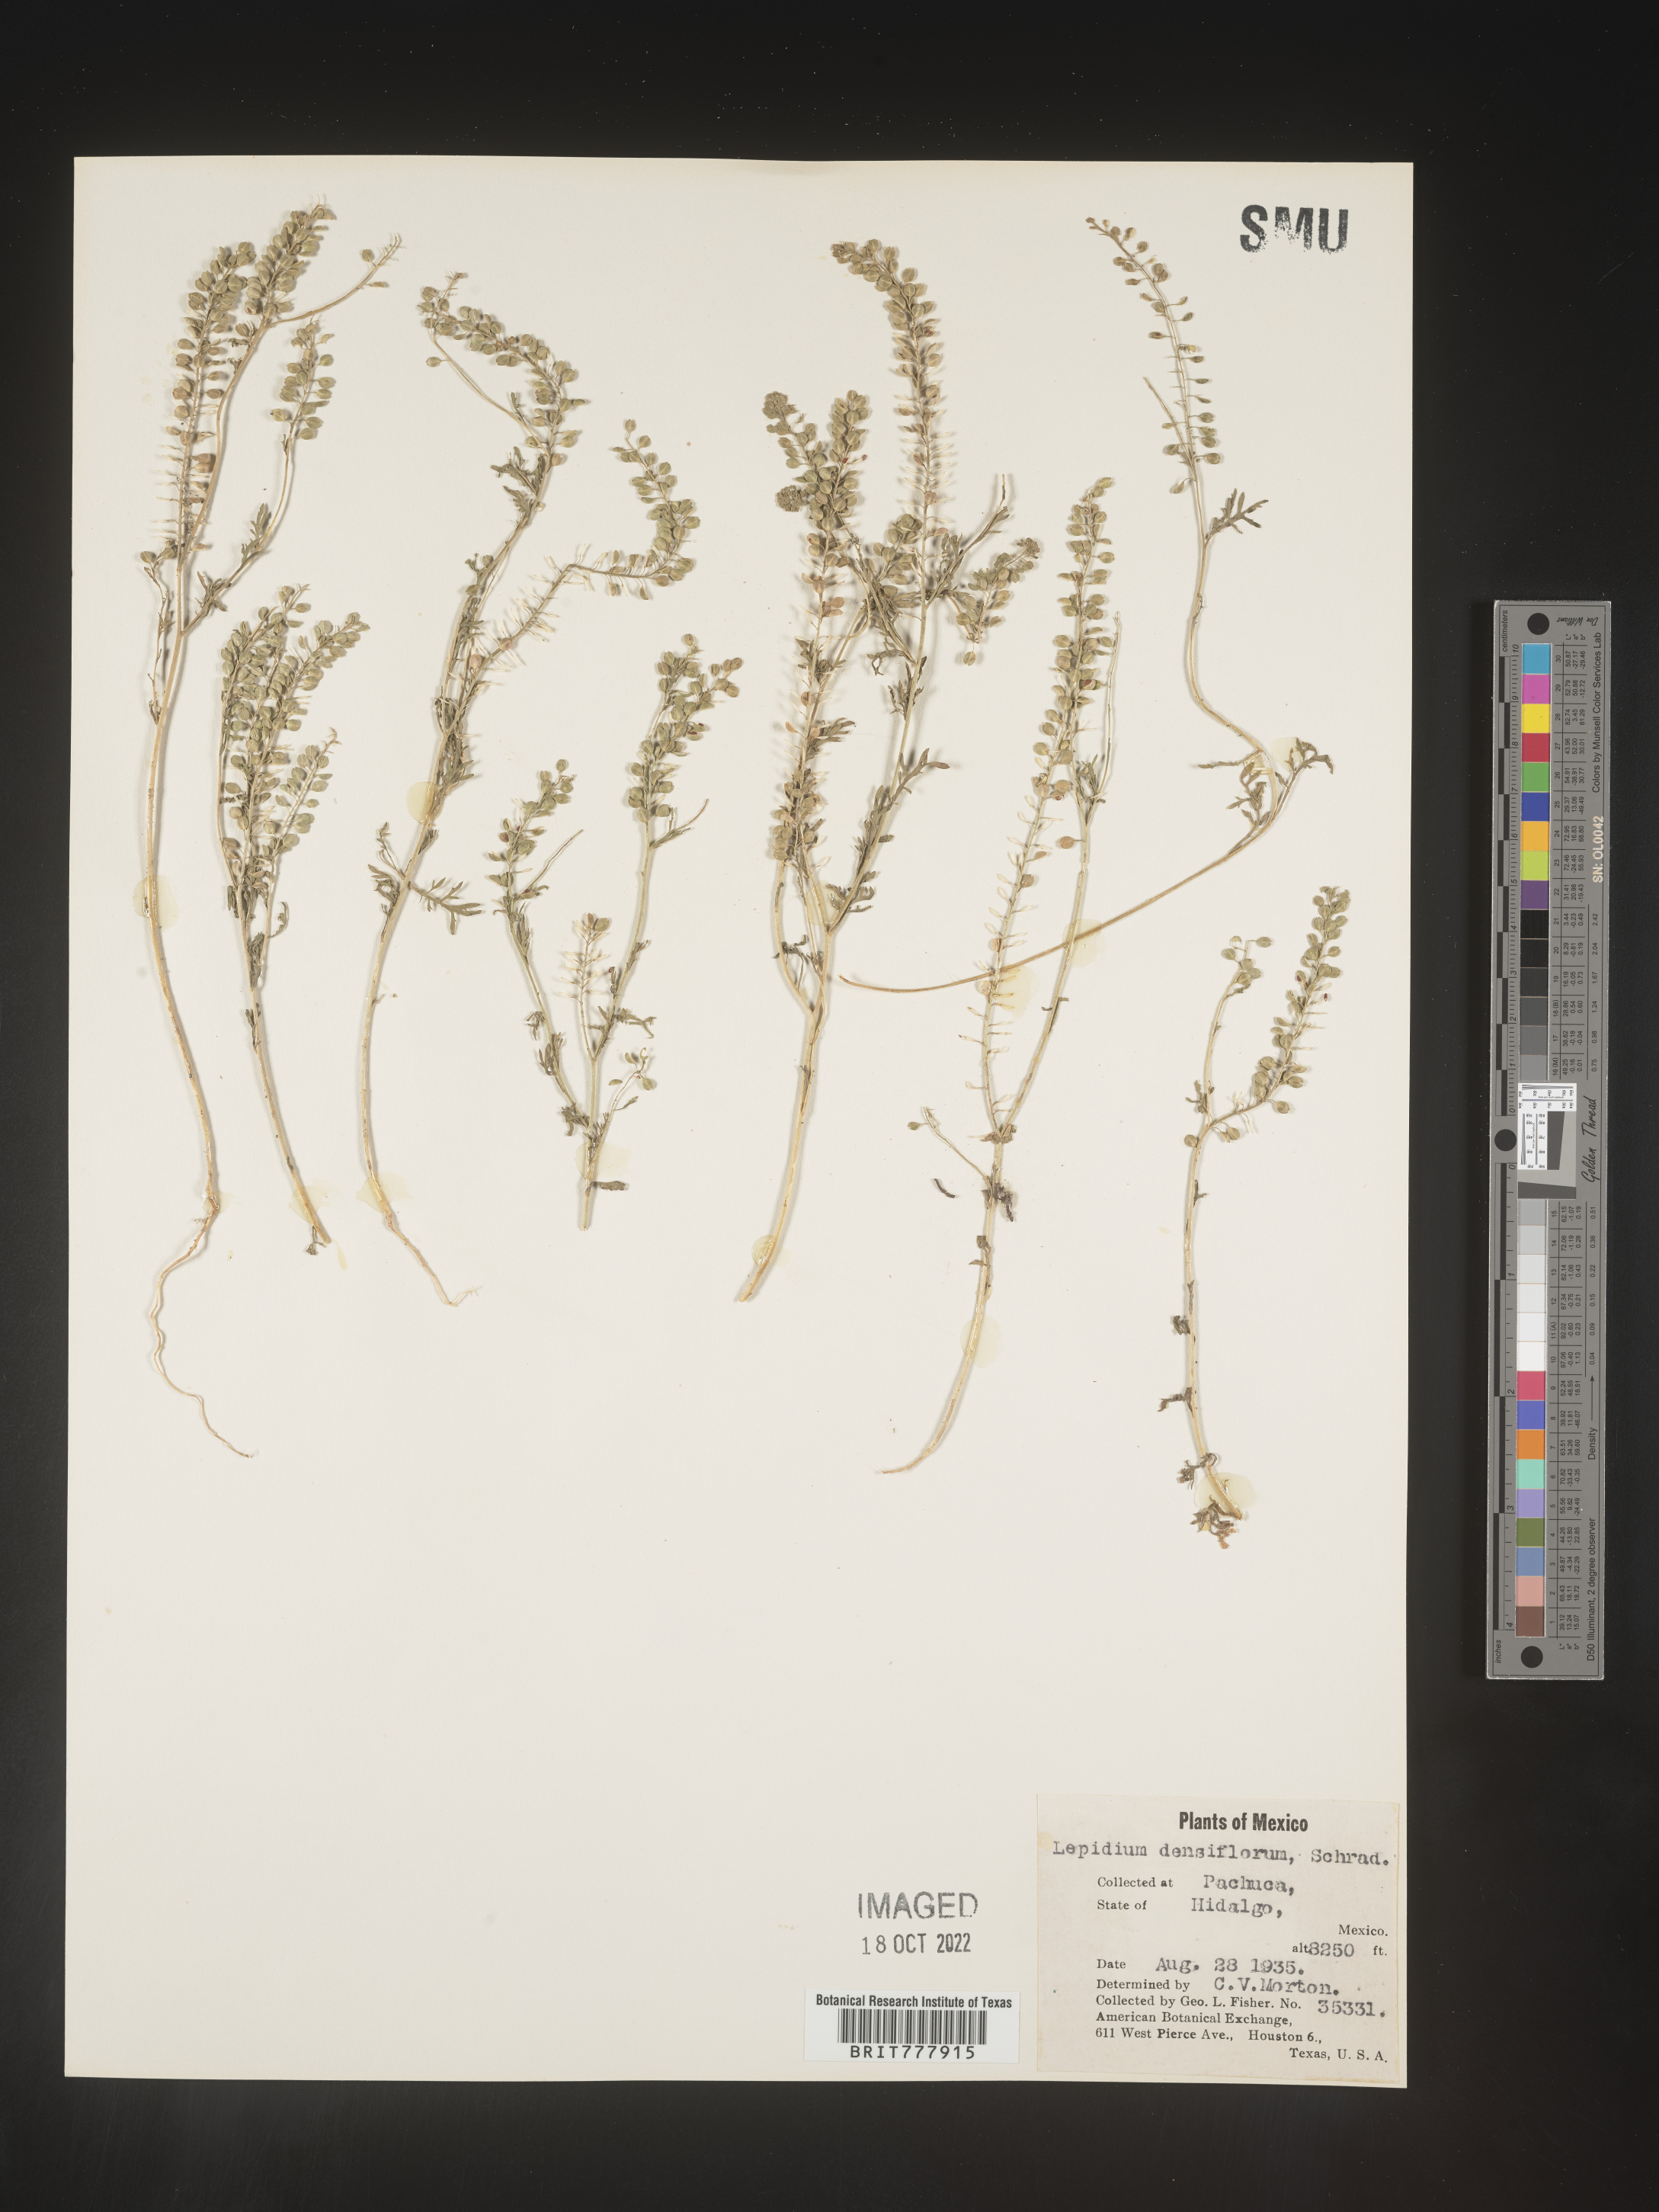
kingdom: Plantae
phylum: Tracheophyta
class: Magnoliopsida
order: Brassicales
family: Brassicaceae
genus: Lepidium
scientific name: Lepidium
